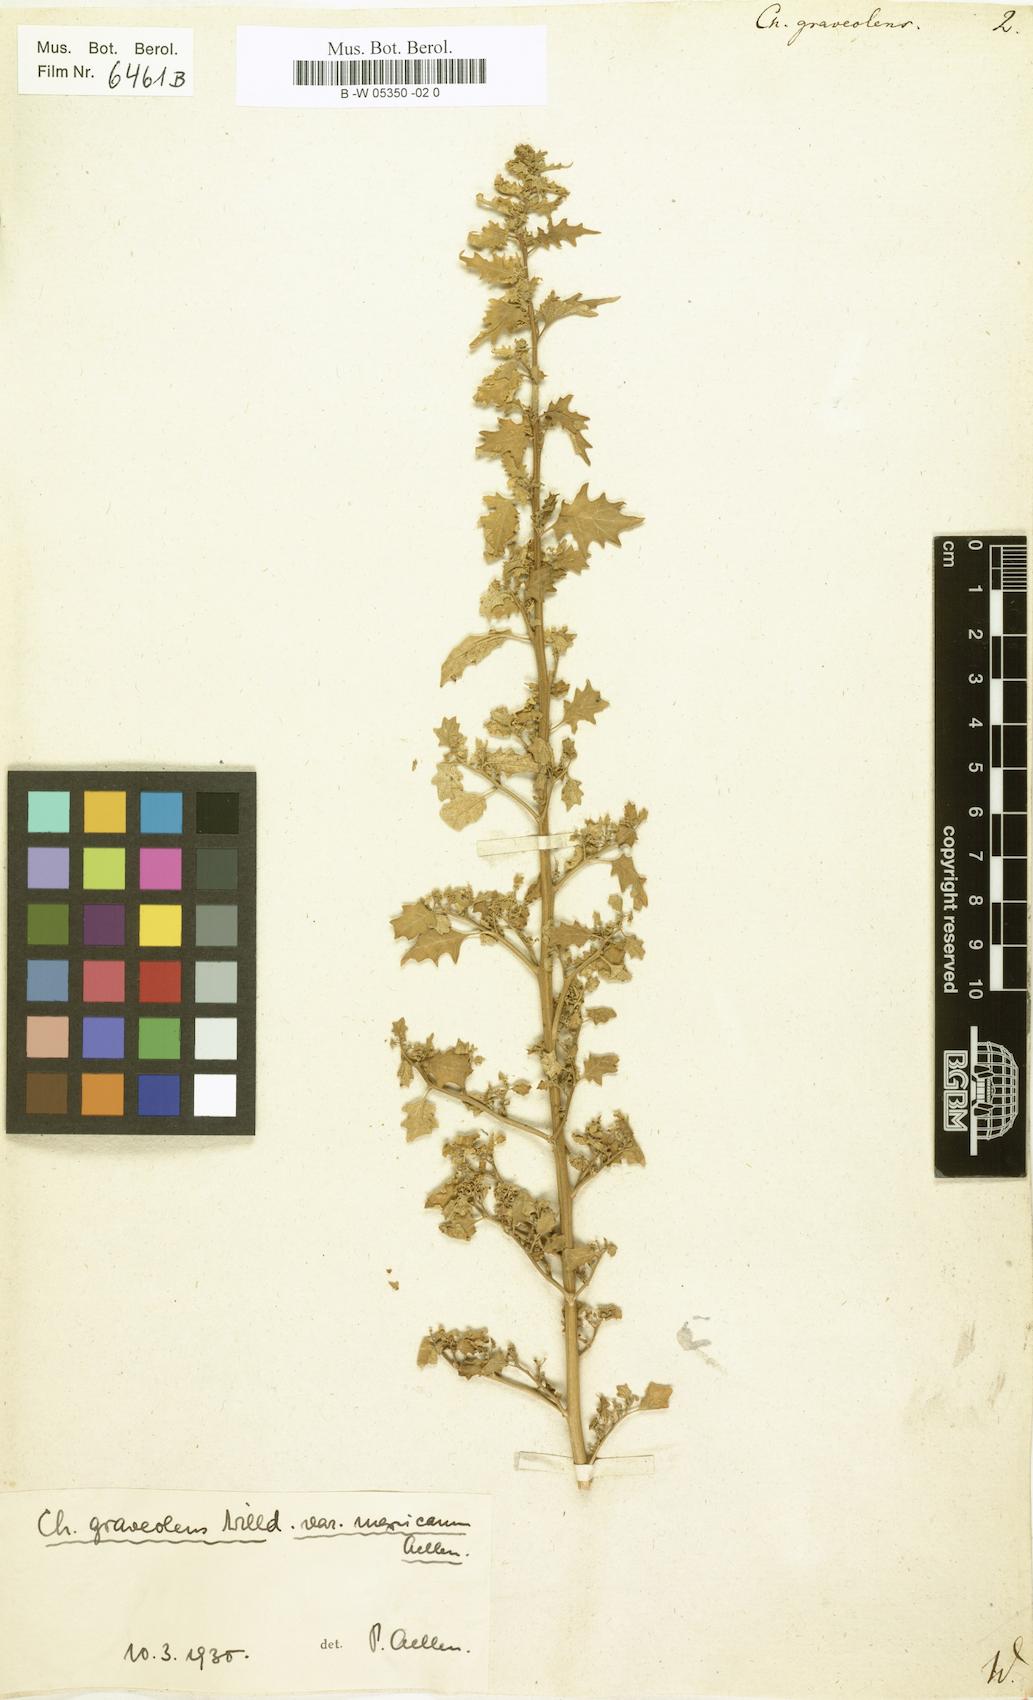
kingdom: Plantae
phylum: Tracheophyta
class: Magnoliopsida
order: Caryophyllales
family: Amaranthaceae
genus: Dysphania
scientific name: Dysphania graveolens
